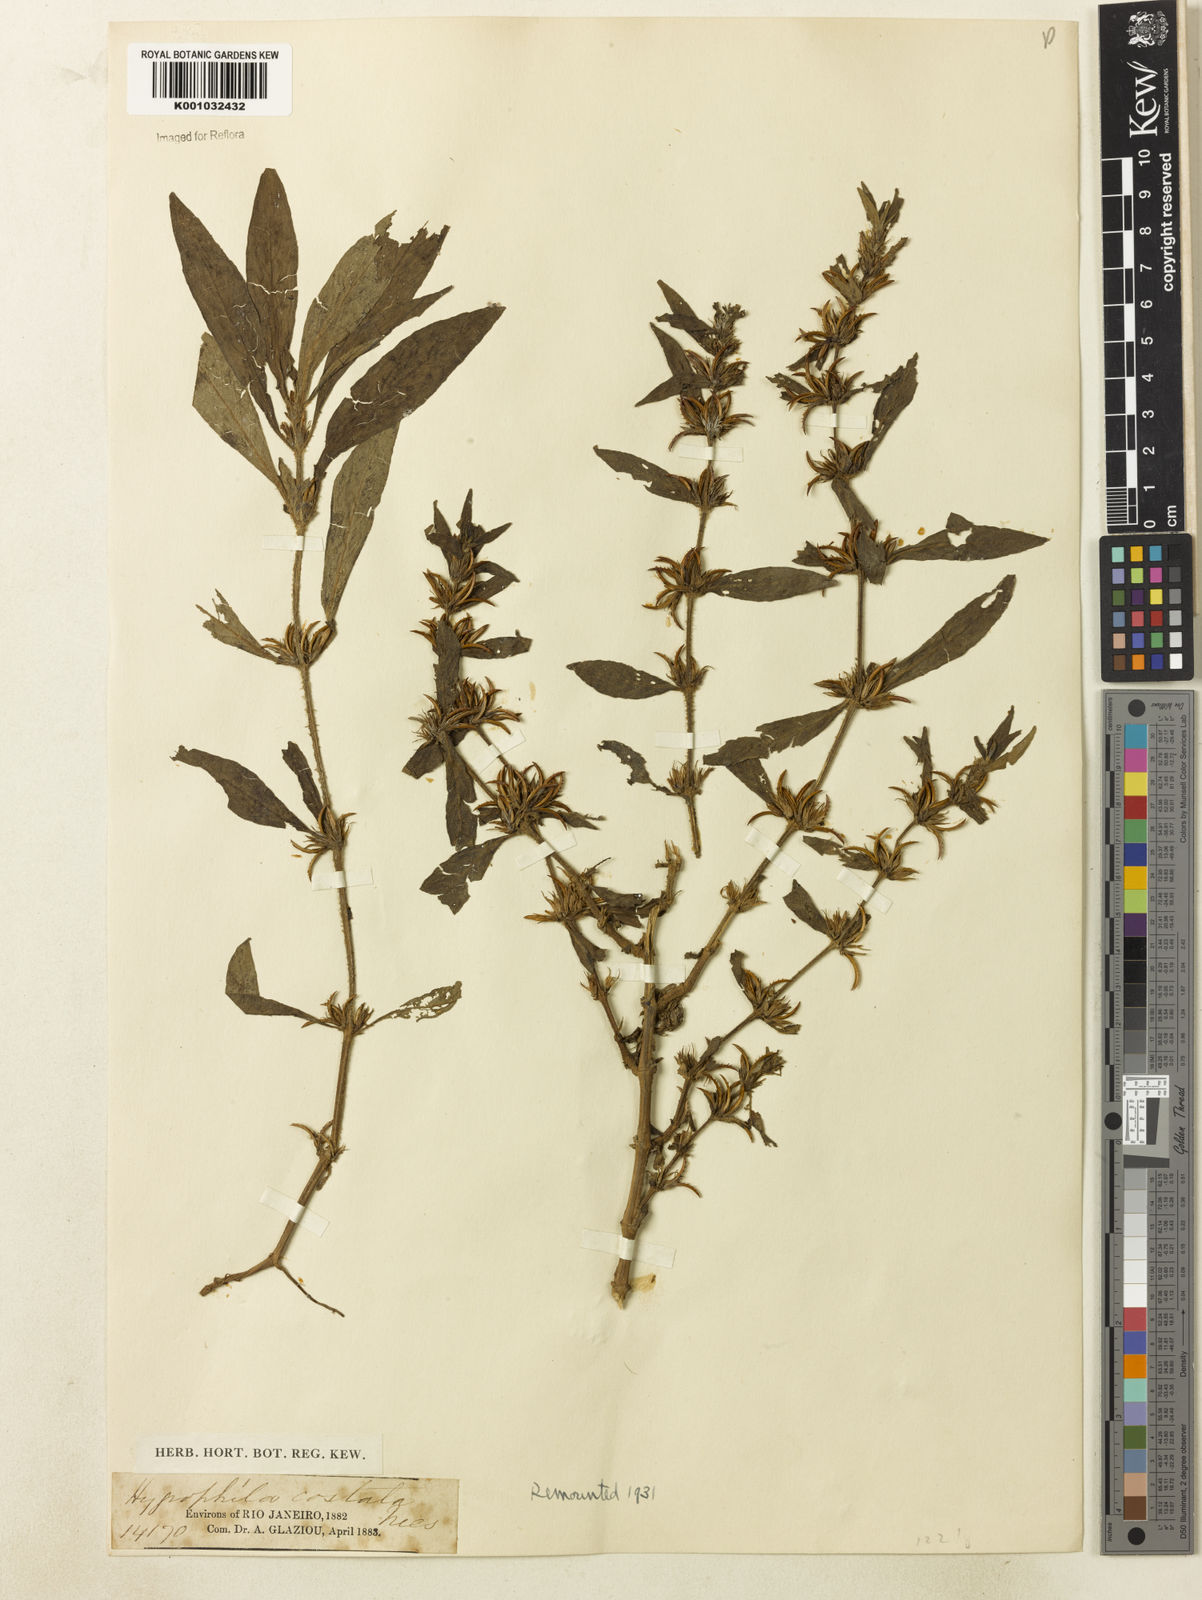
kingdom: Plantae
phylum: Tracheophyta
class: Magnoliopsida
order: Lamiales
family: Acanthaceae
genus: Hygrophila
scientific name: Hygrophila costata
